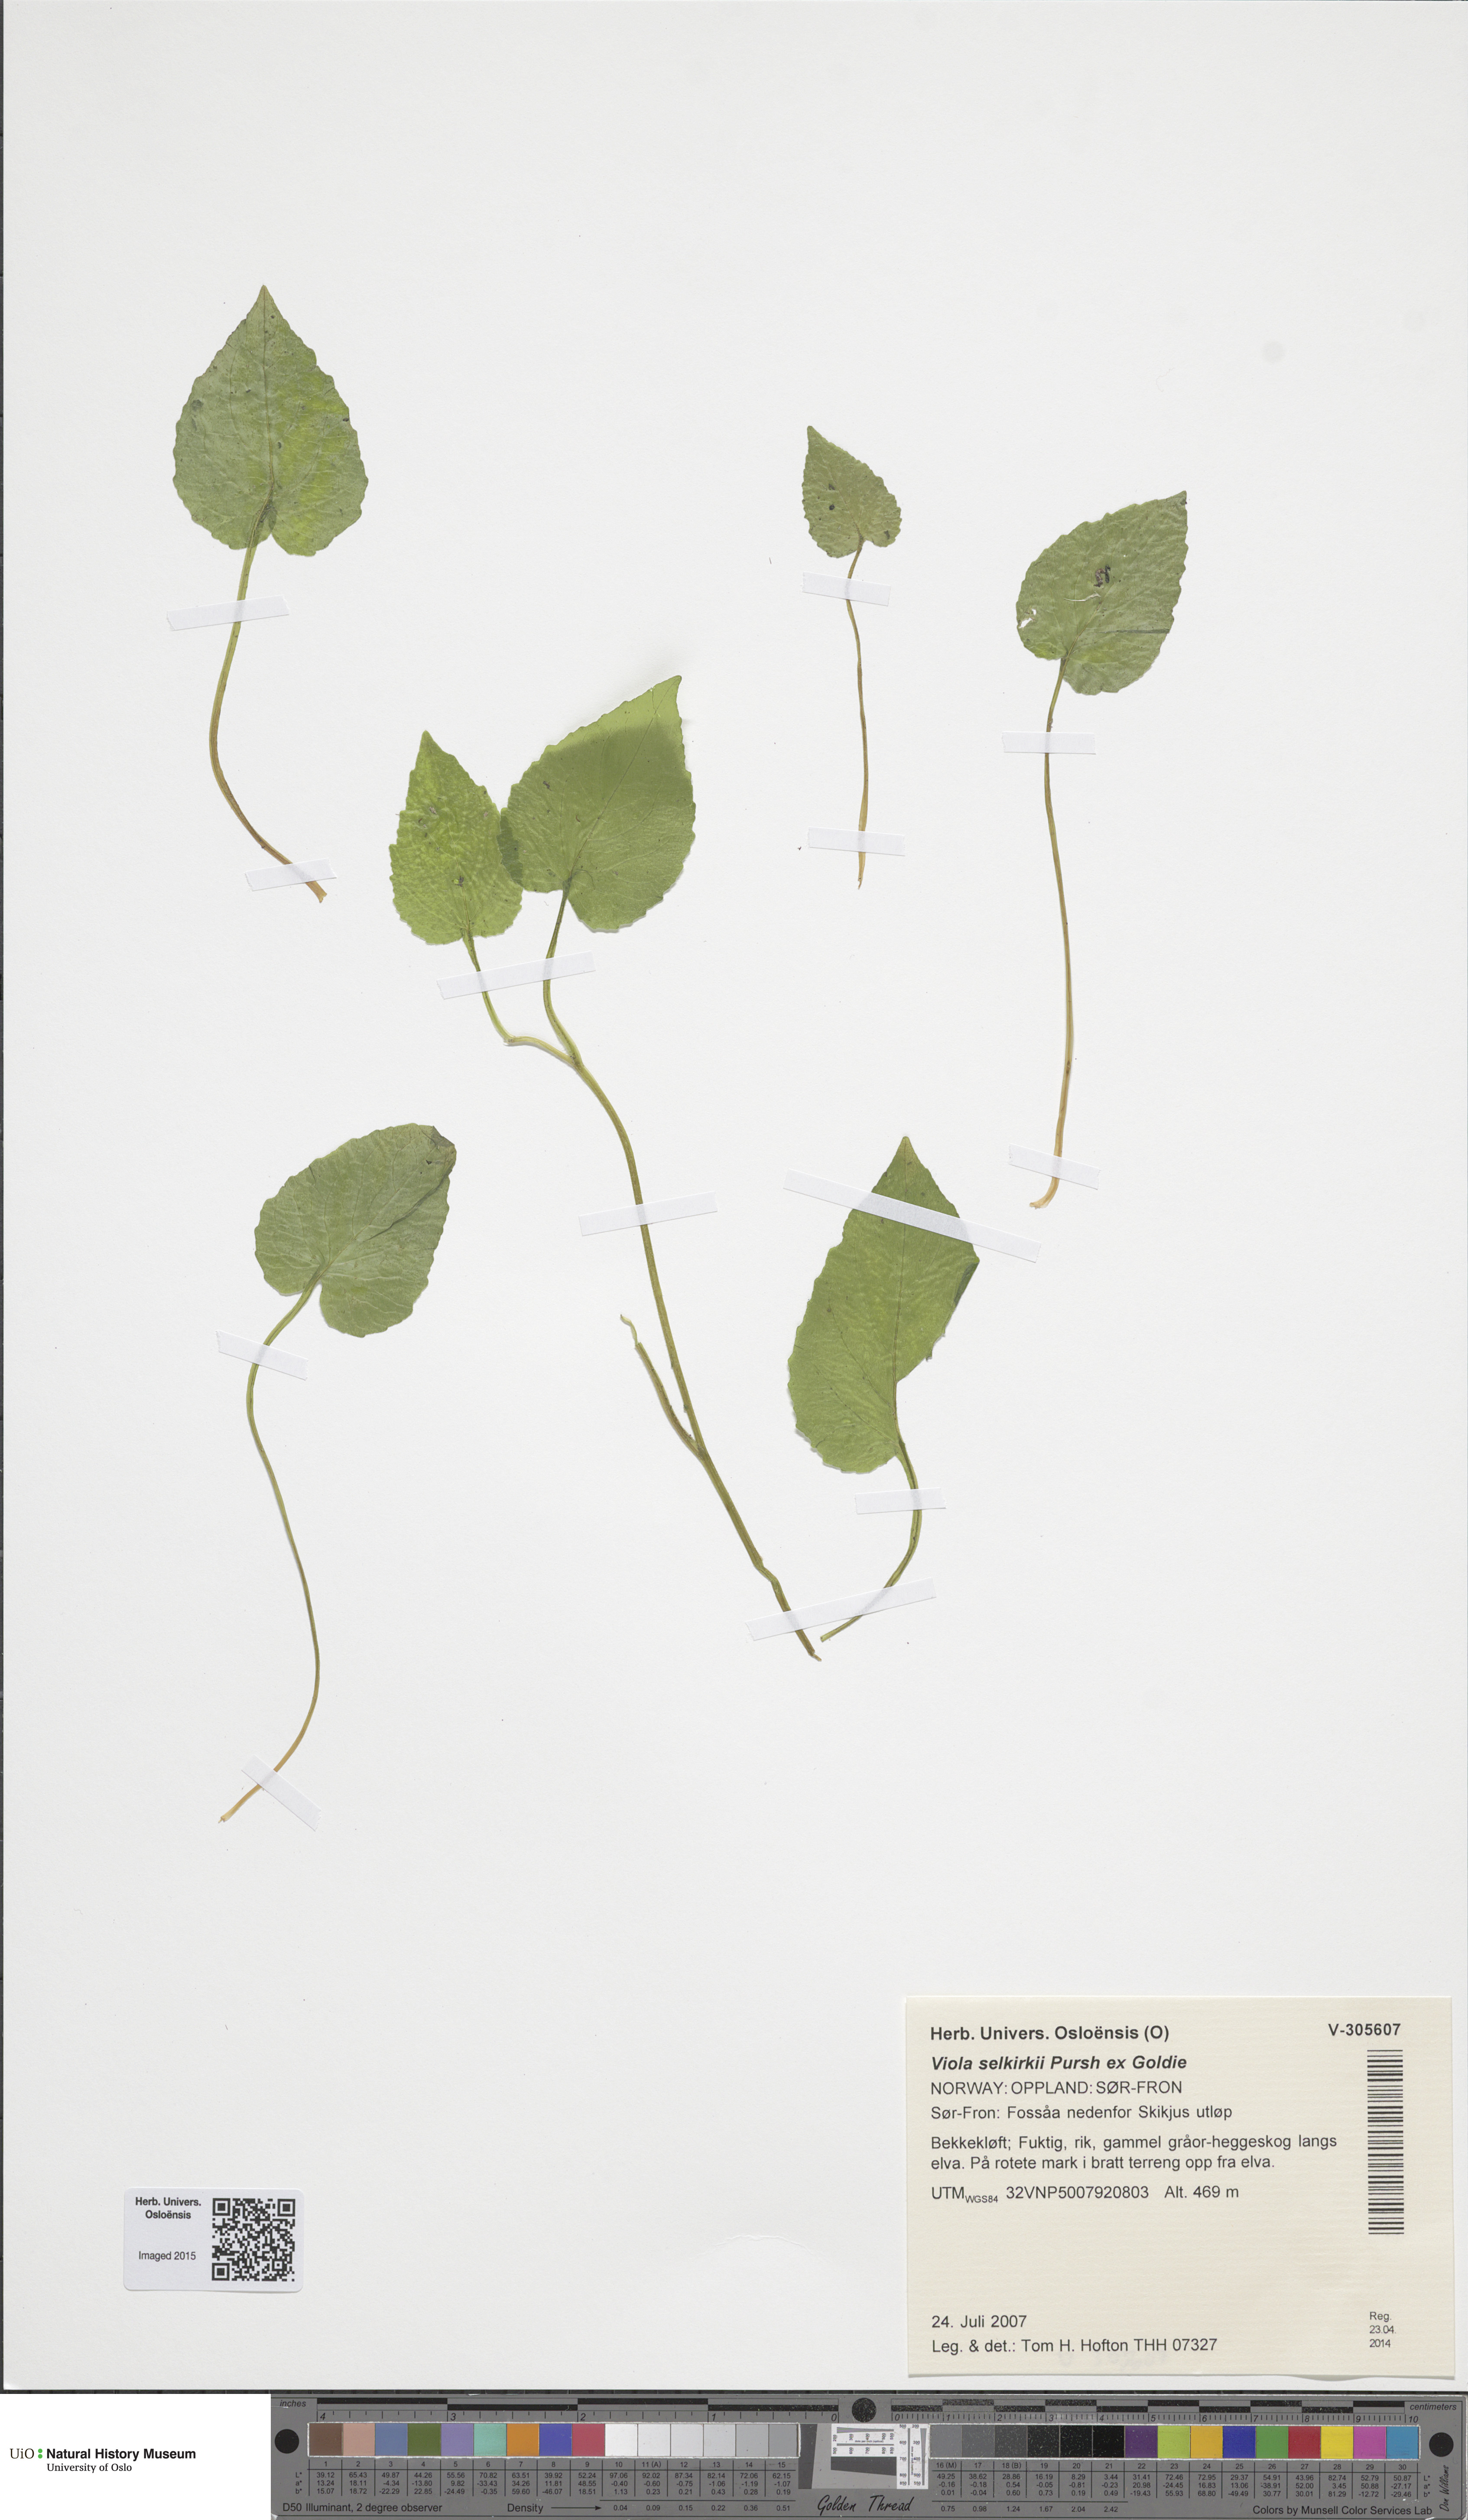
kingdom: Plantae
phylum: Tracheophyta
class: Magnoliopsida
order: Malpighiales
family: Violaceae
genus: Viola
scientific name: Viola selkirkii
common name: Selkirk's violet
